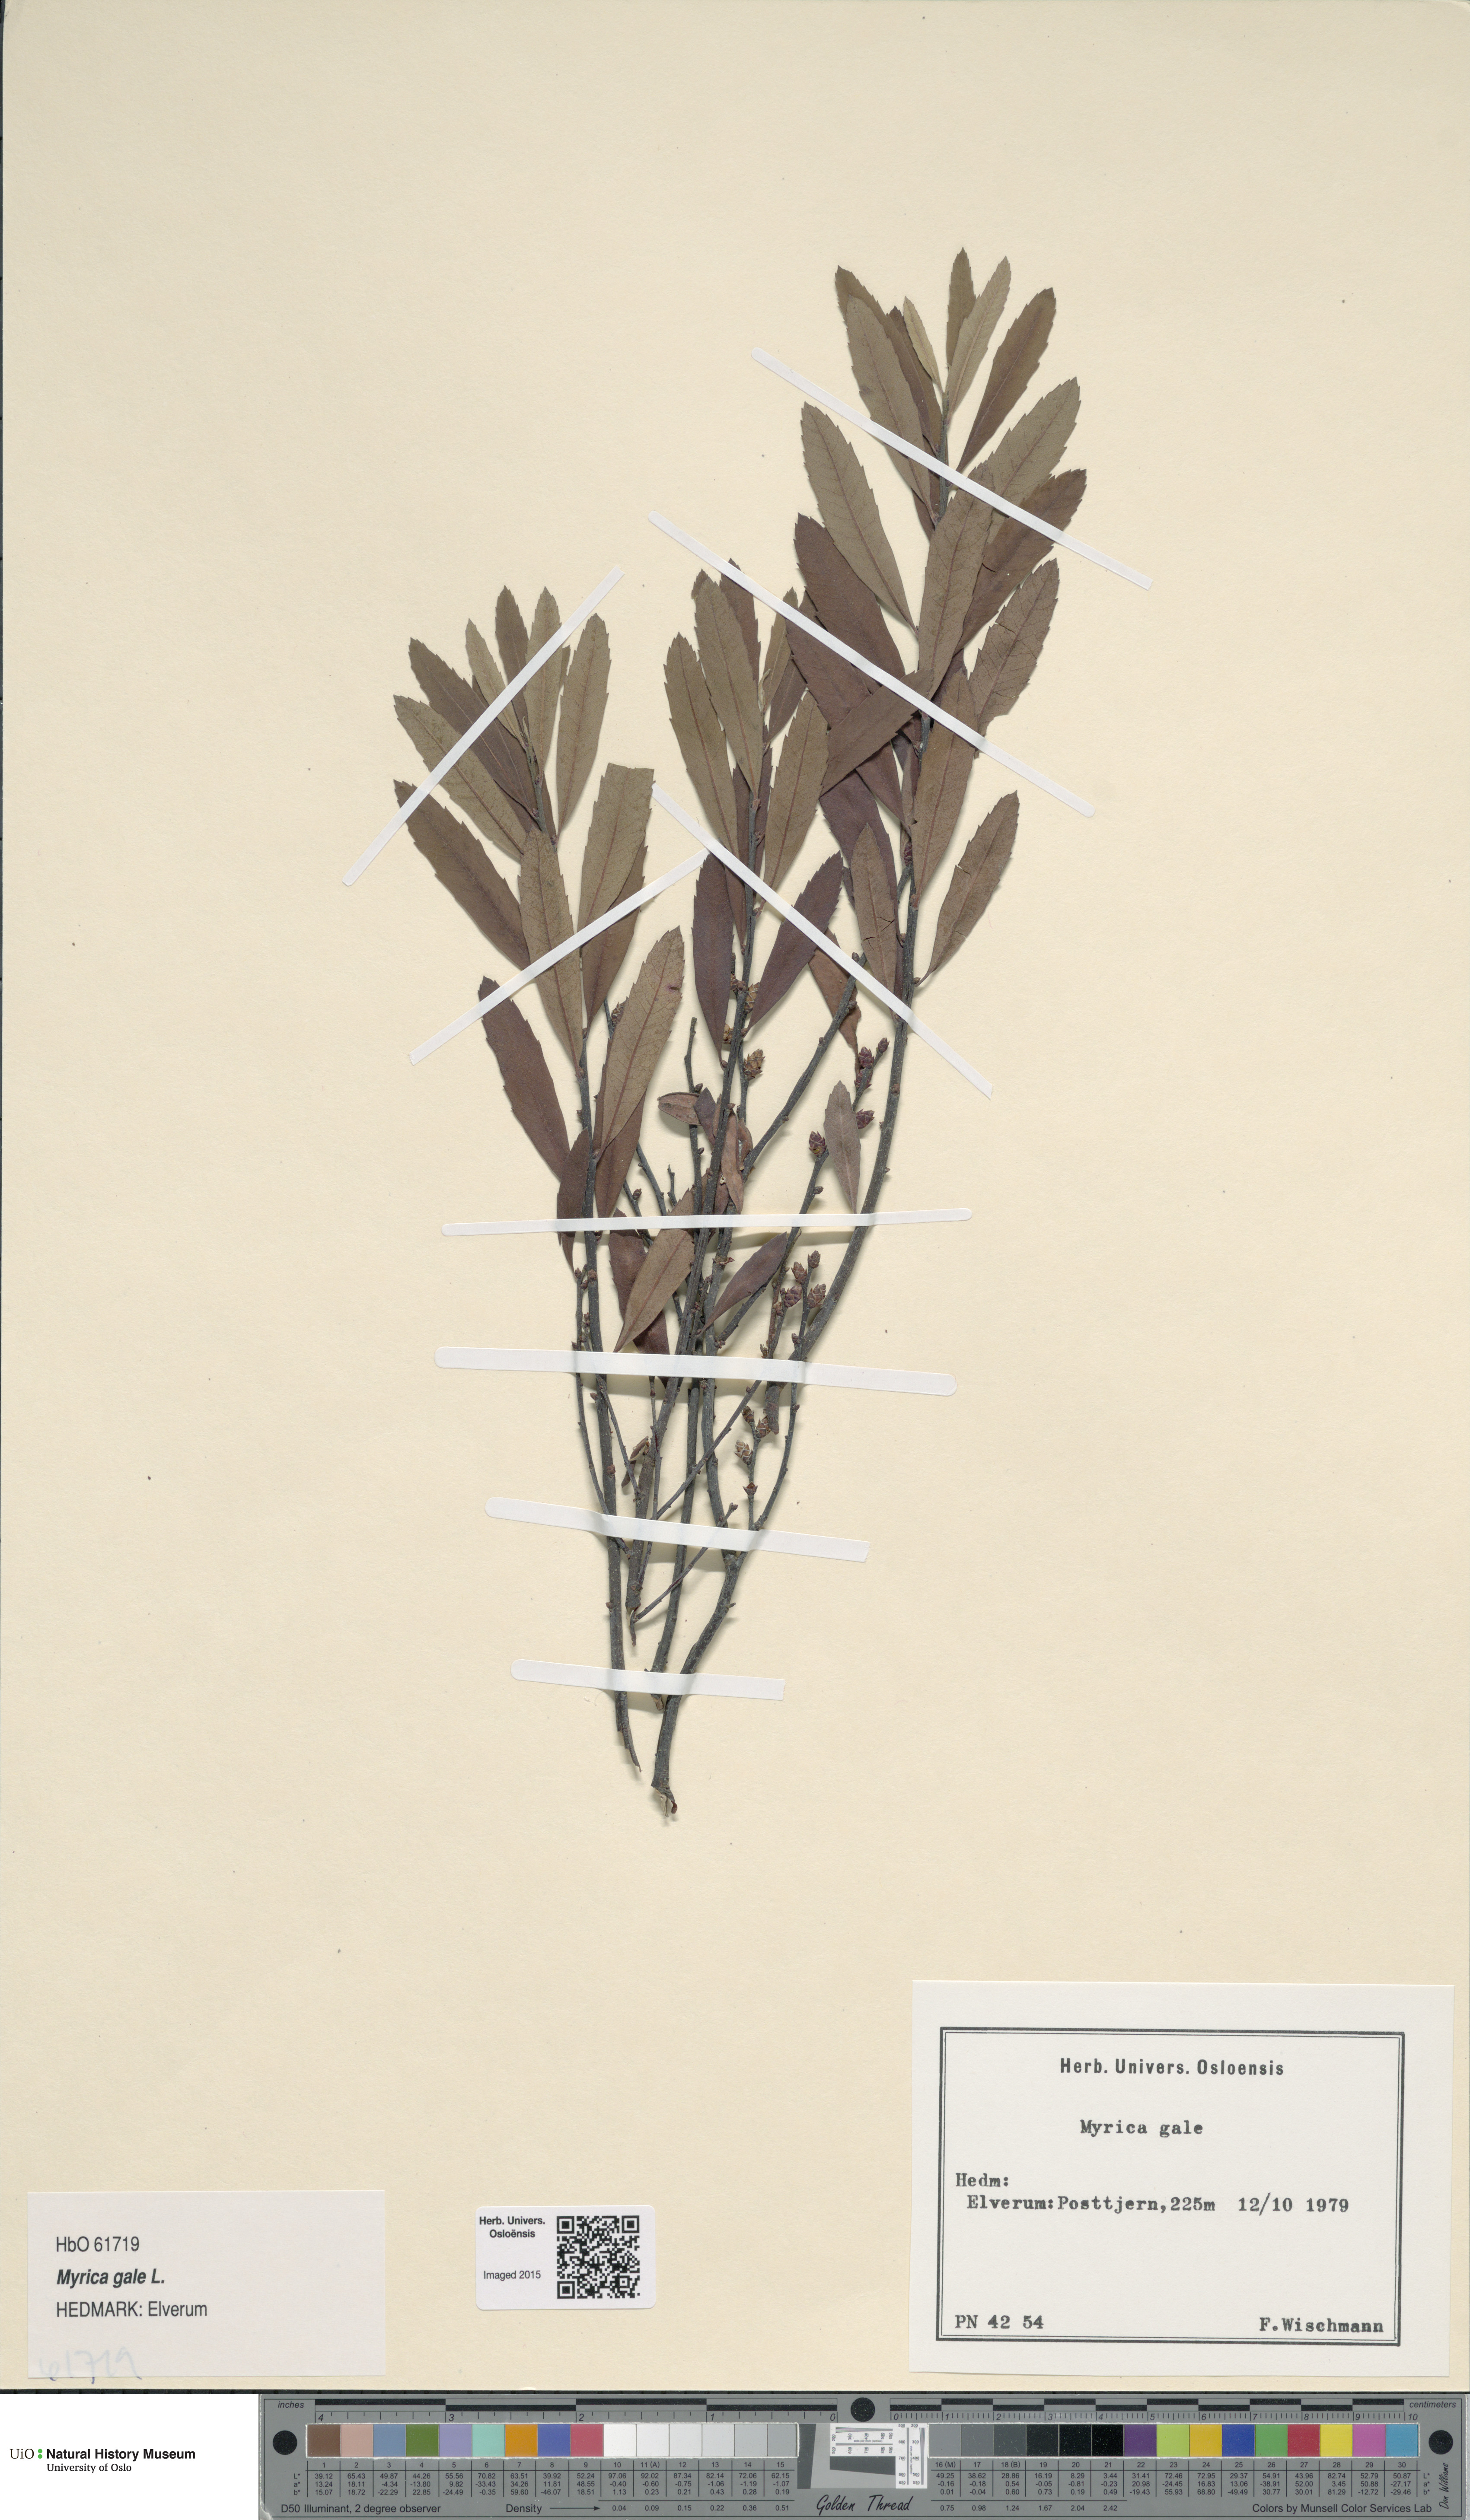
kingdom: Plantae
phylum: Tracheophyta
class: Magnoliopsida
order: Fagales
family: Myricaceae
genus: Myrica
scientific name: Myrica gale
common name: Sweet gale
